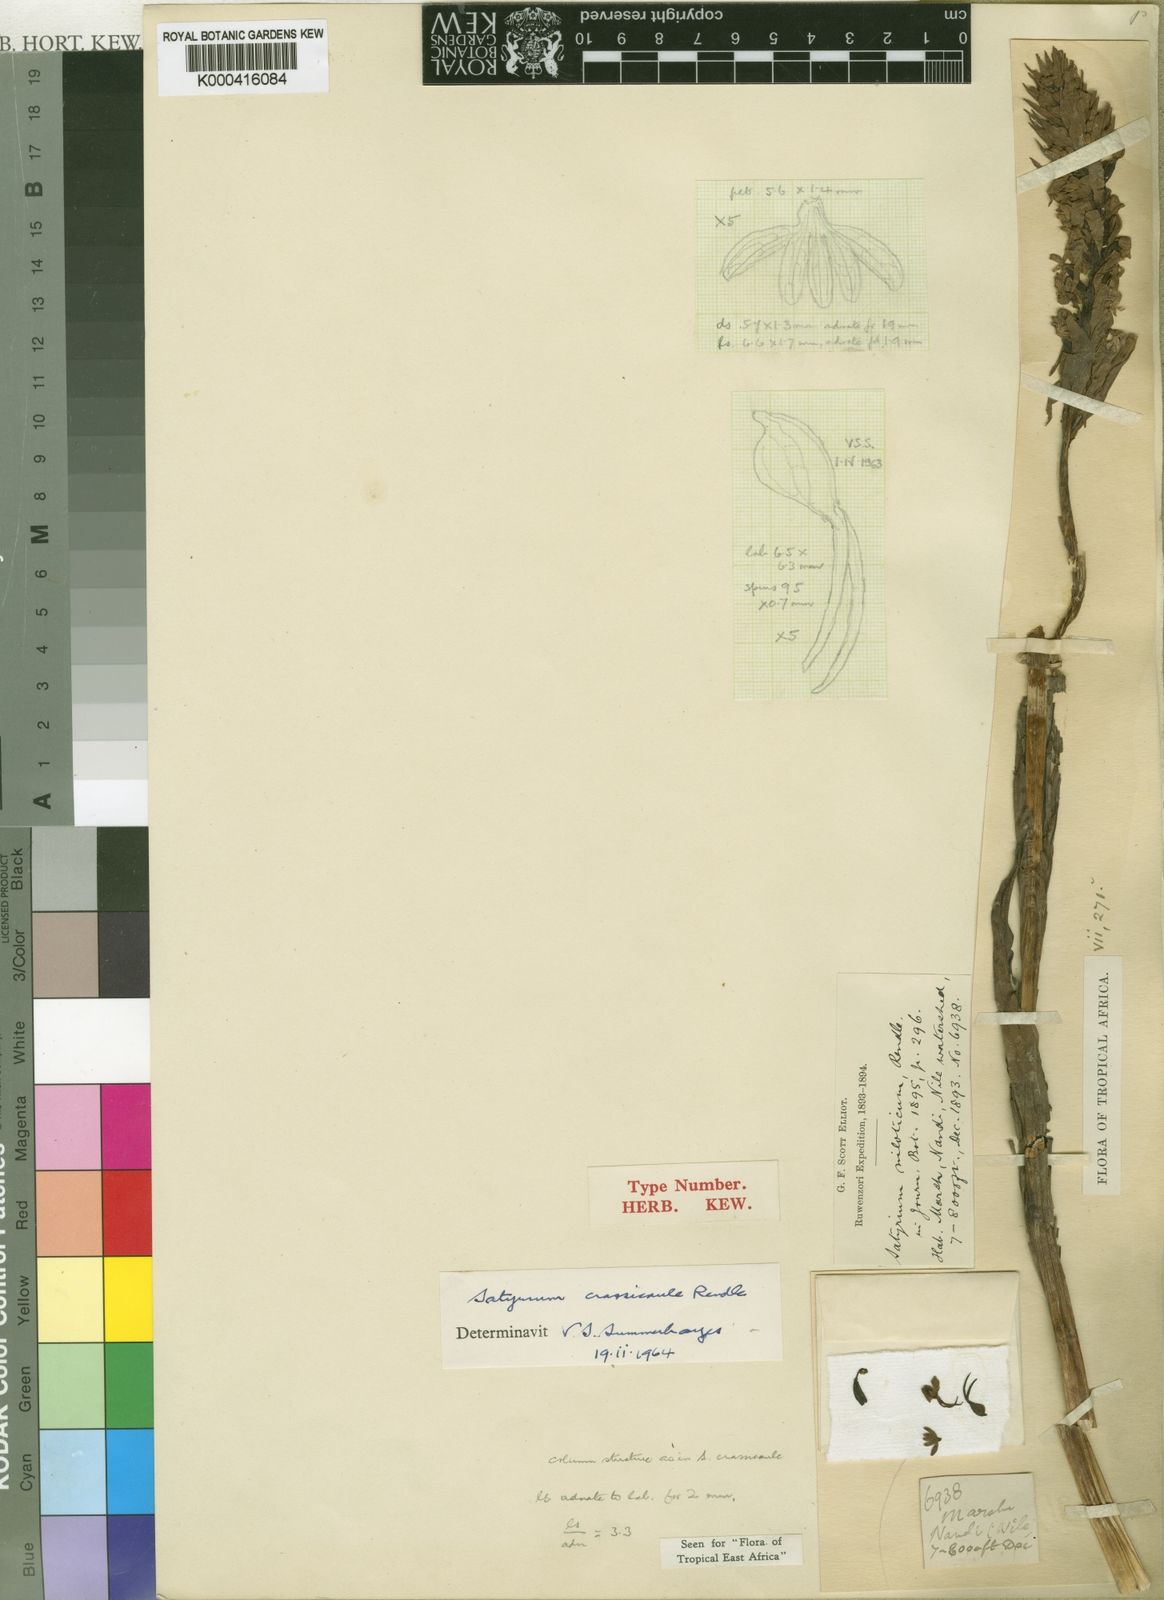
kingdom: Plantae
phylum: Tracheophyta
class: Liliopsida
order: Asparagales
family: Orchidaceae
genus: Satyrium
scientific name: Satyrium crassicaule
